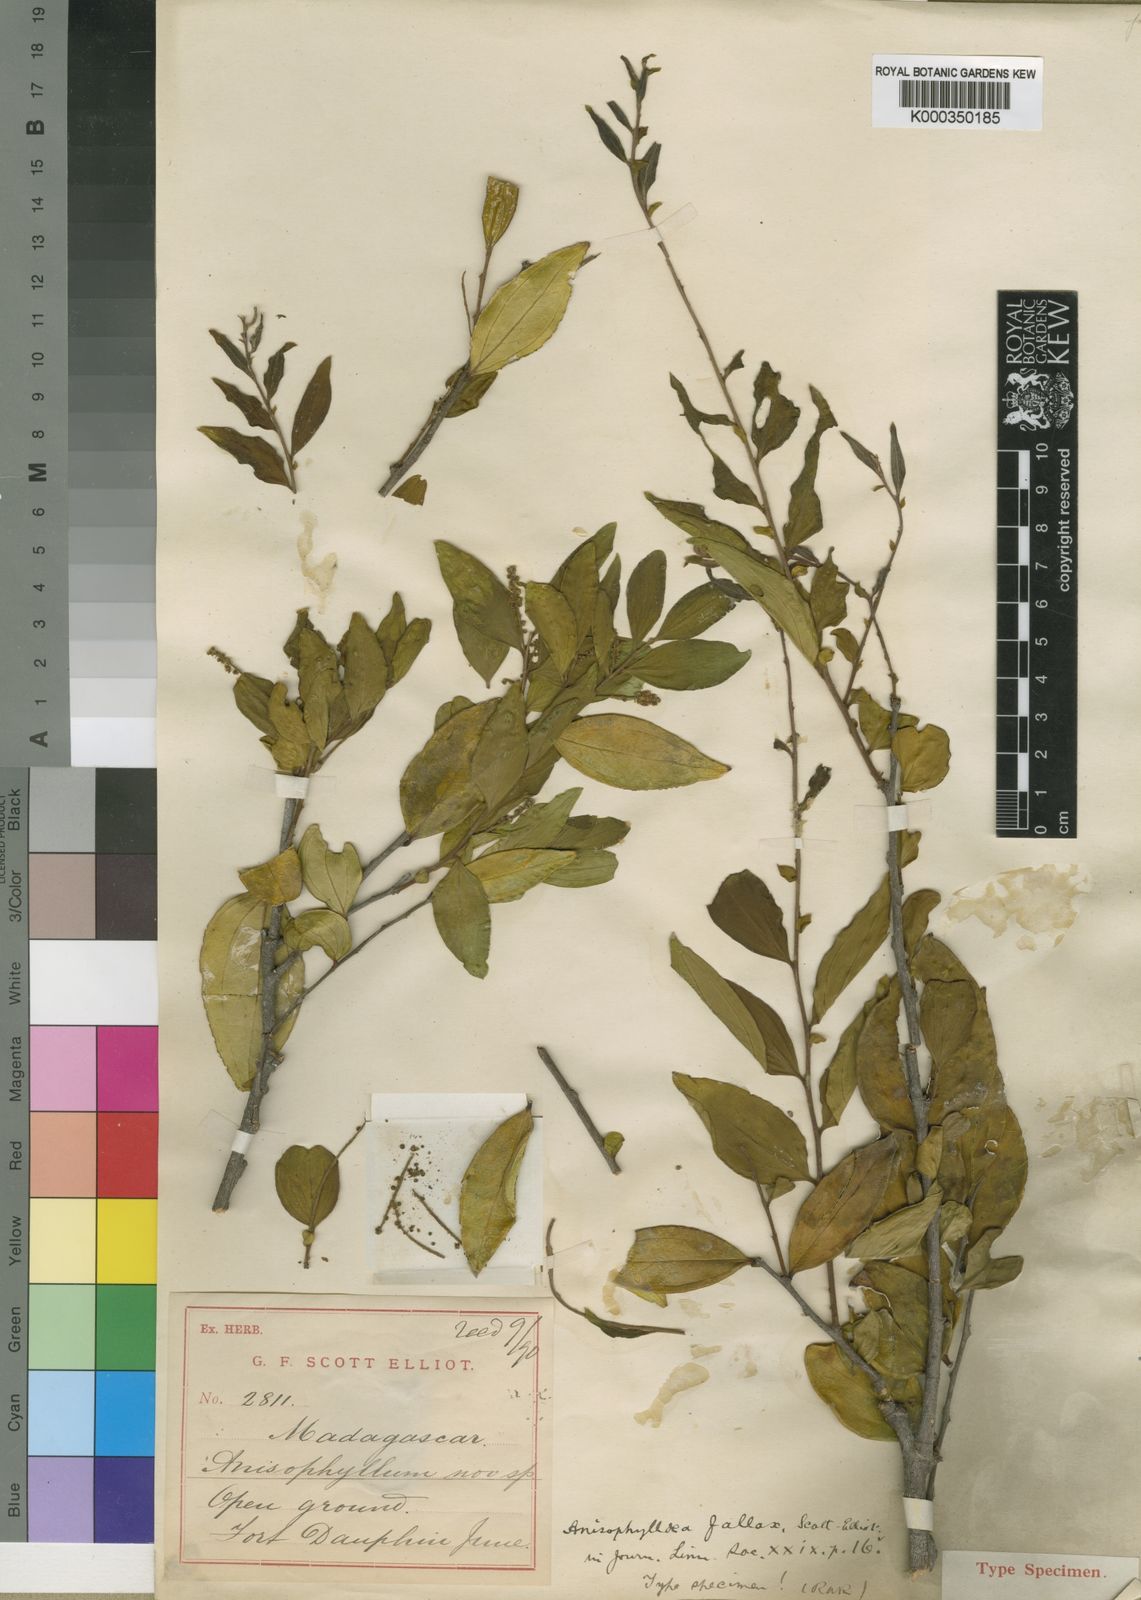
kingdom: Plantae
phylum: Tracheophyta
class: Magnoliopsida
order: Cucurbitales
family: Anisophylleaceae
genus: Anisophyllea
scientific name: Anisophyllea fallax
